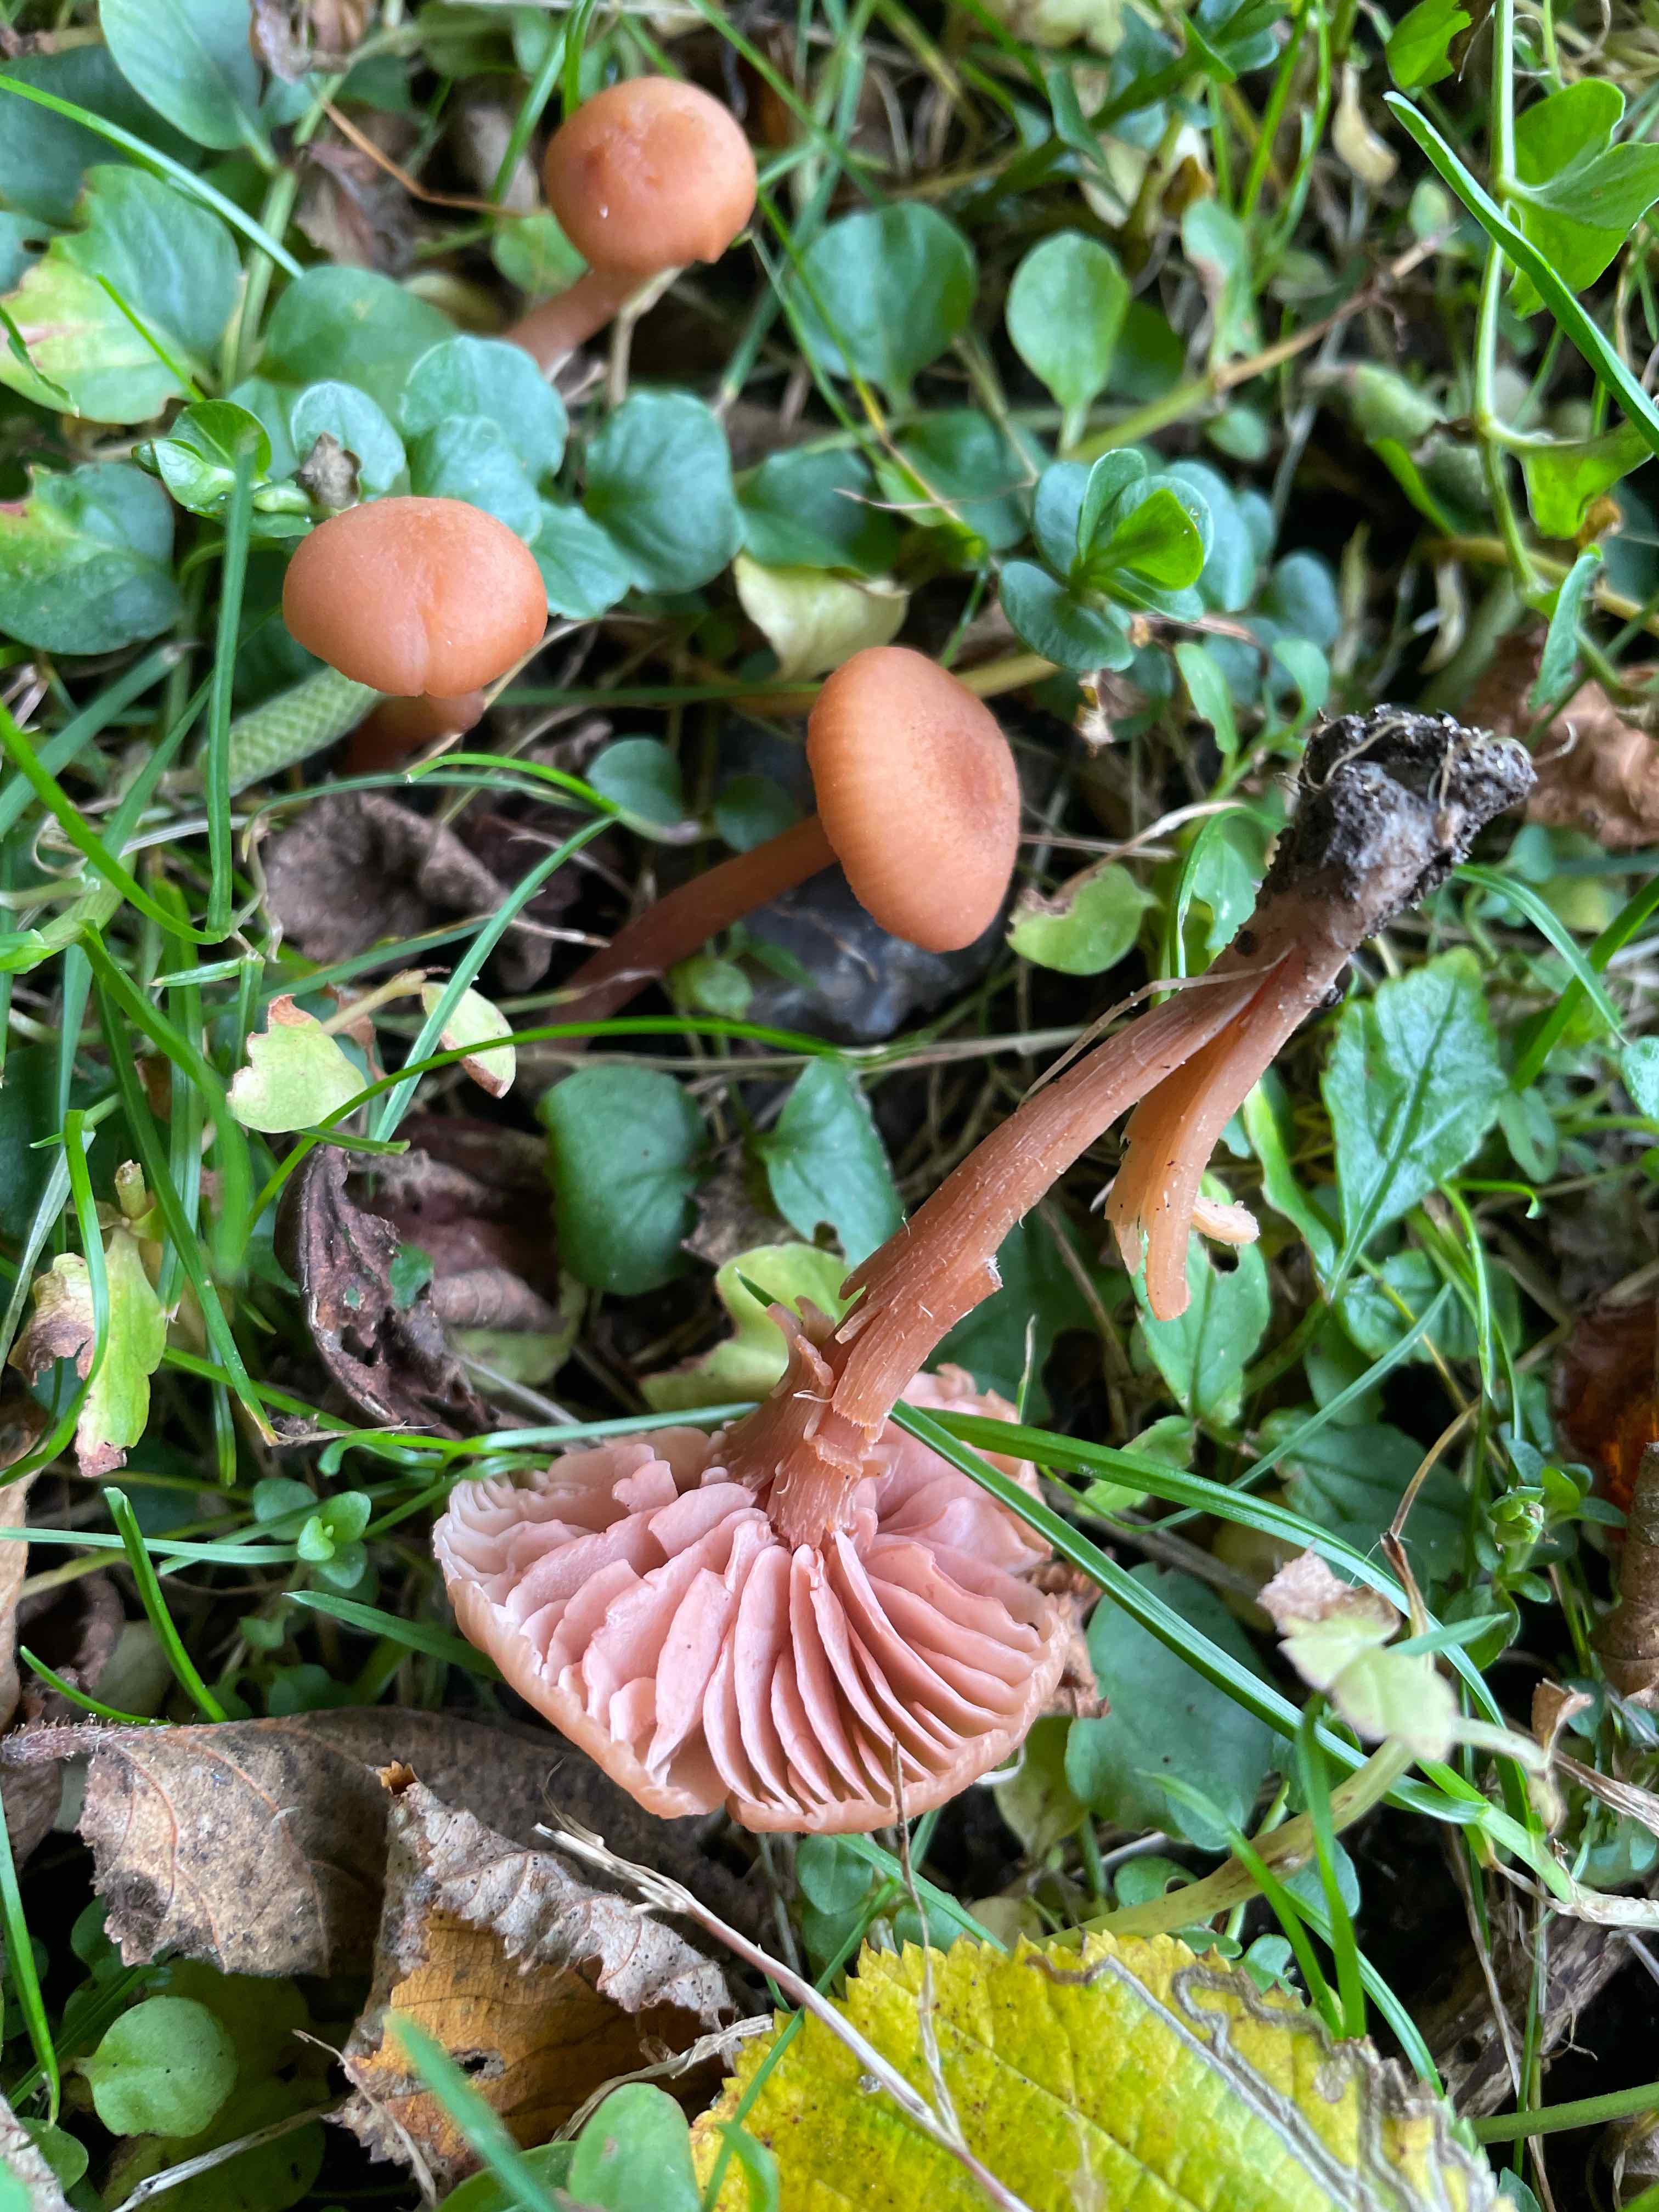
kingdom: Fungi
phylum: Basidiomycota
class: Agaricomycetes
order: Agaricales
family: Hydnangiaceae
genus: Laccaria
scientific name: Laccaria laccata
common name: rød ametysthat
